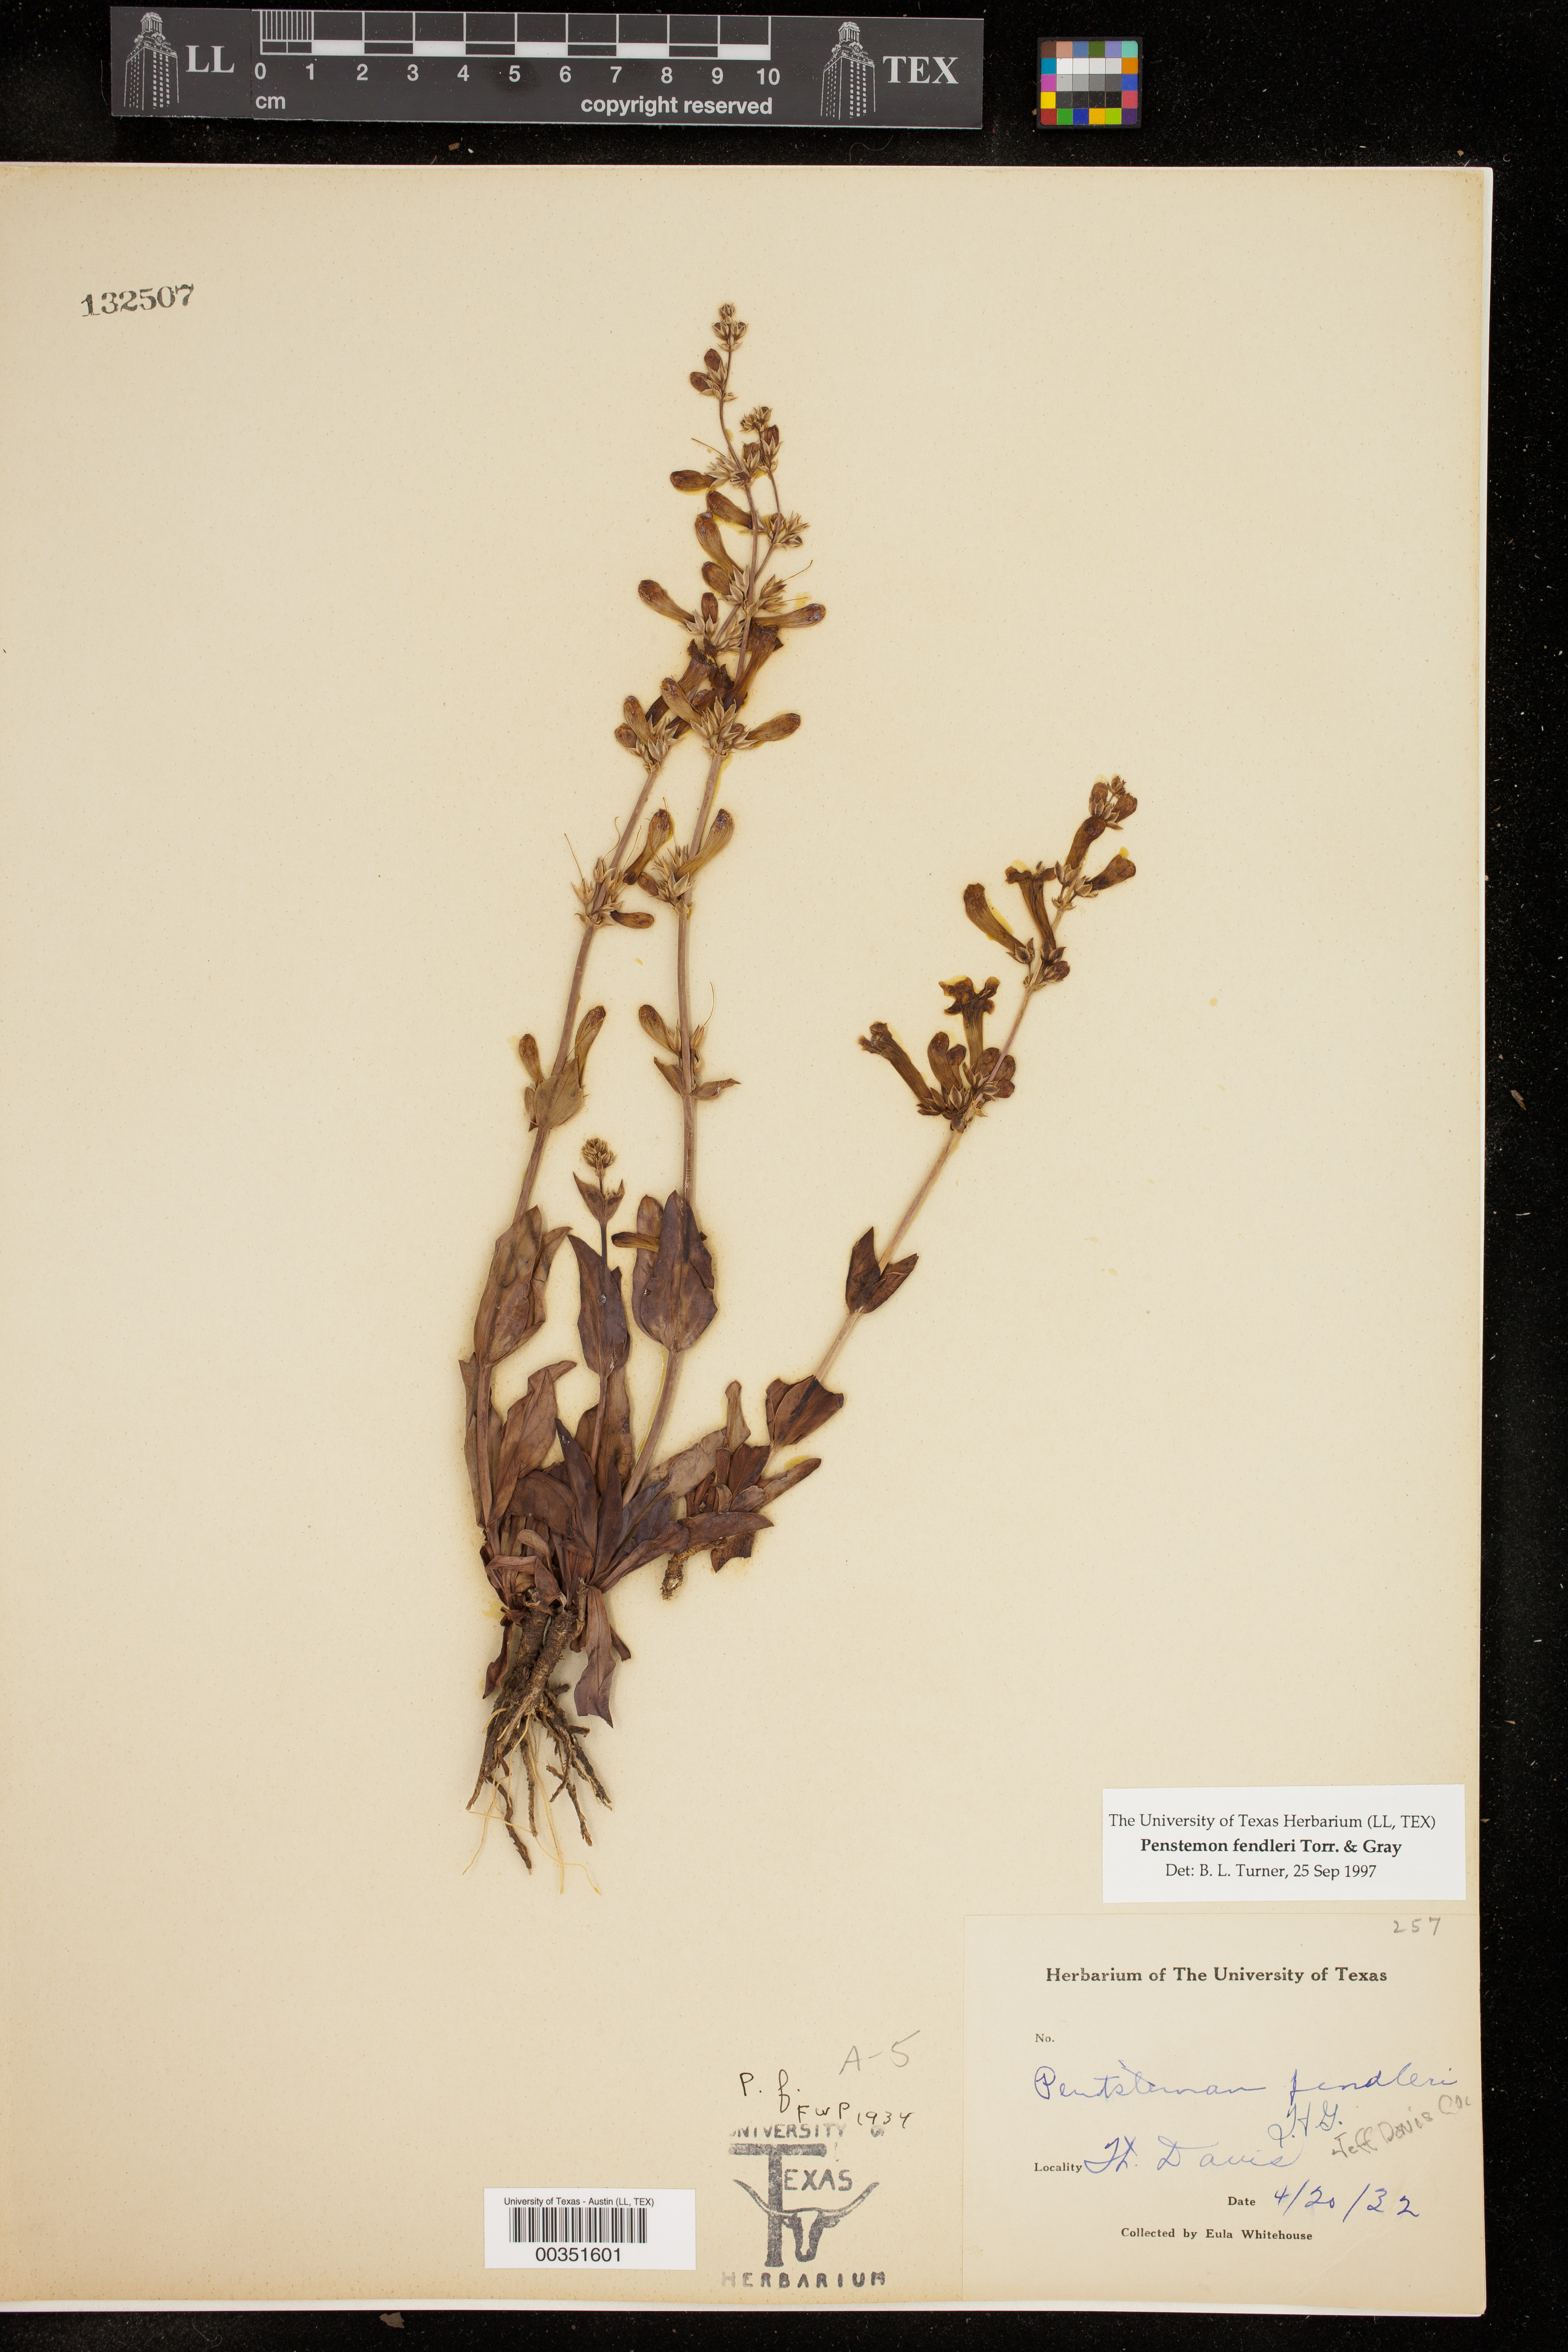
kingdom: Plantae
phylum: Tracheophyta
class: Magnoliopsida
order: Lamiales
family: Plantaginaceae
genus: Penstemon
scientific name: Penstemon fendleri
